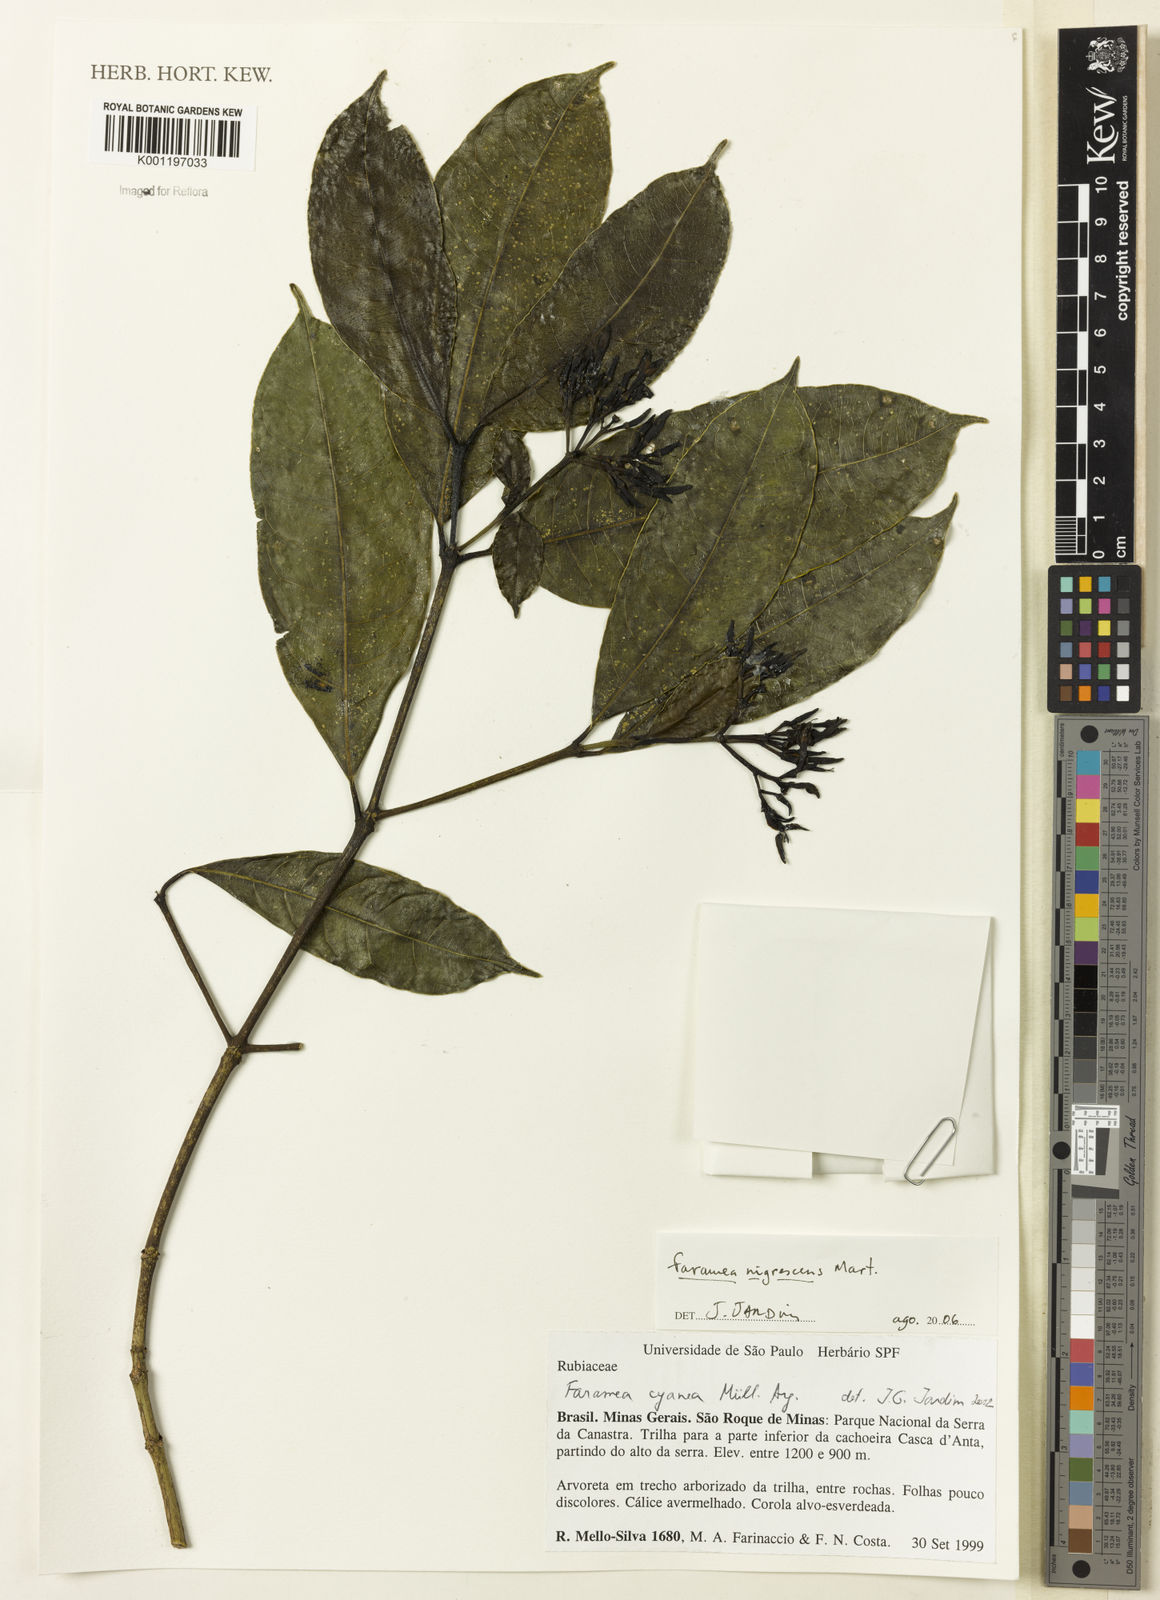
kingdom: Plantae
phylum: Tracheophyta
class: Magnoliopsida
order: Gentianales
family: Rubiaceae
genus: Faramea
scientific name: Faramea nigrescens
